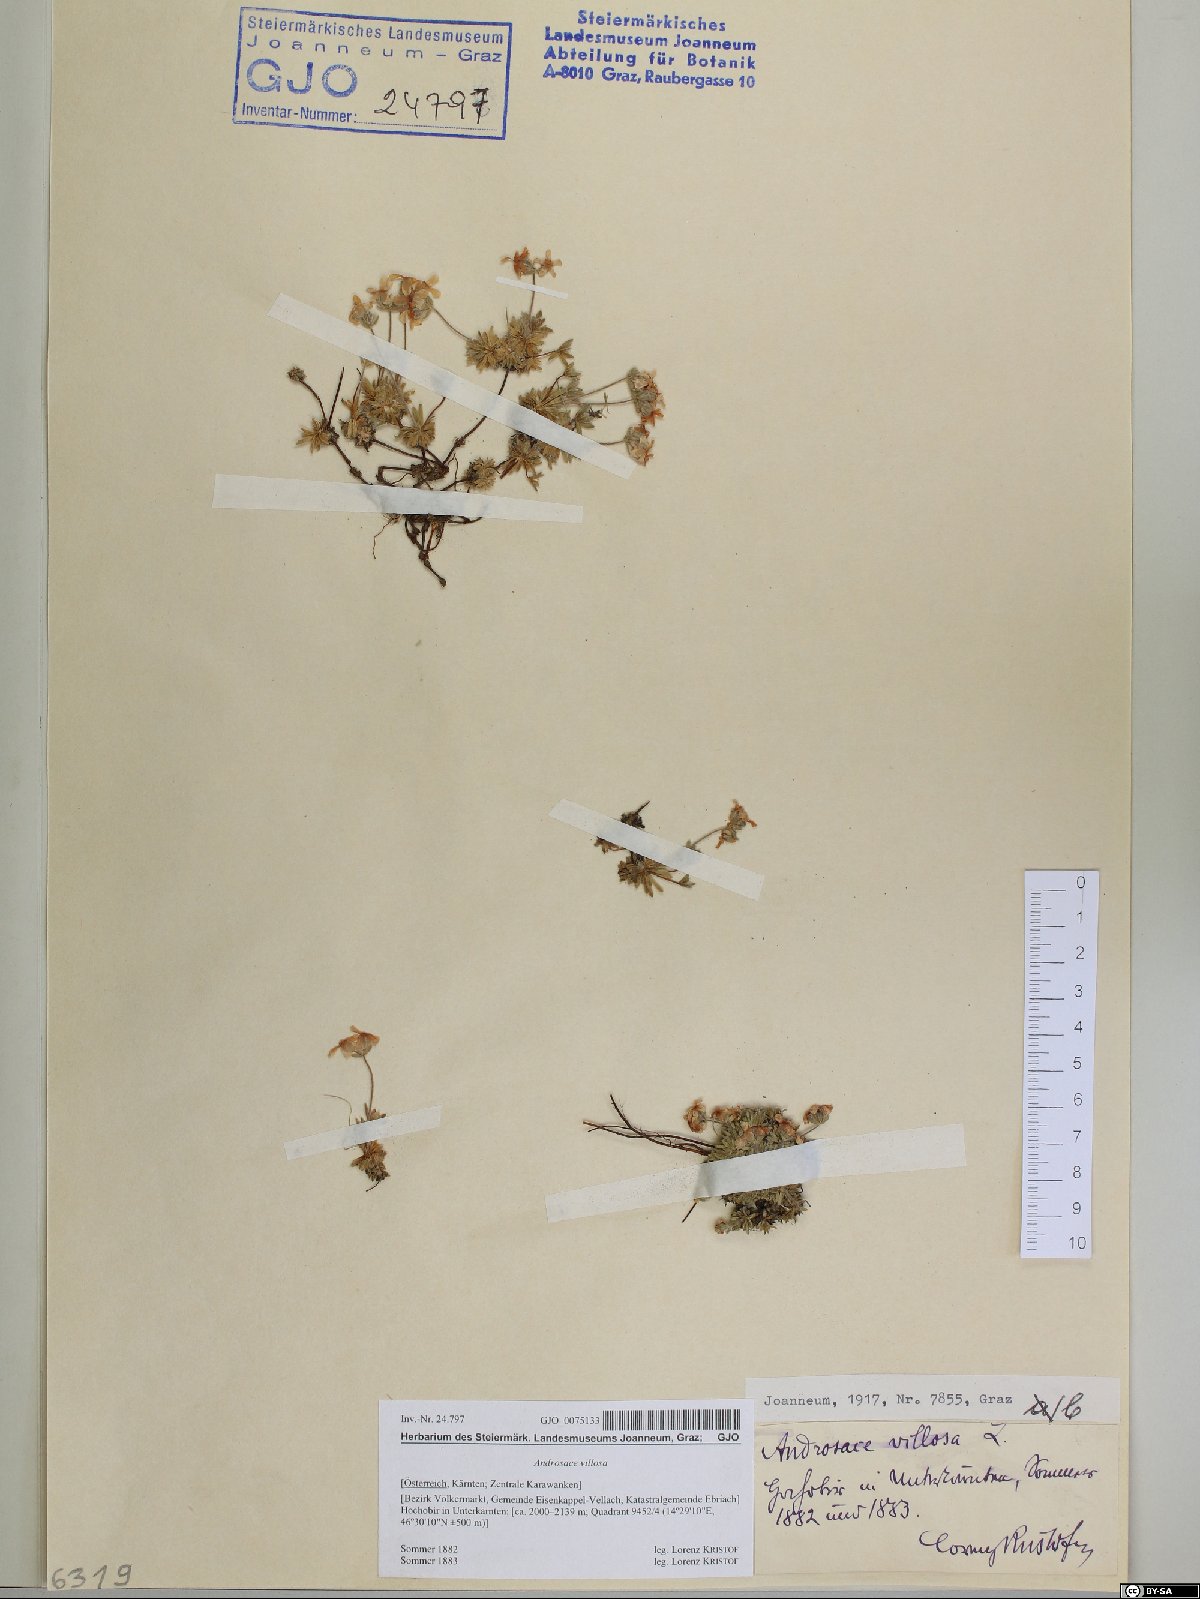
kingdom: Plantae
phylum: Tracheophyta
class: Magnoliopsida
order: Ericales
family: Primulaceae
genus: Androsace
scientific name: Androsace villosa
